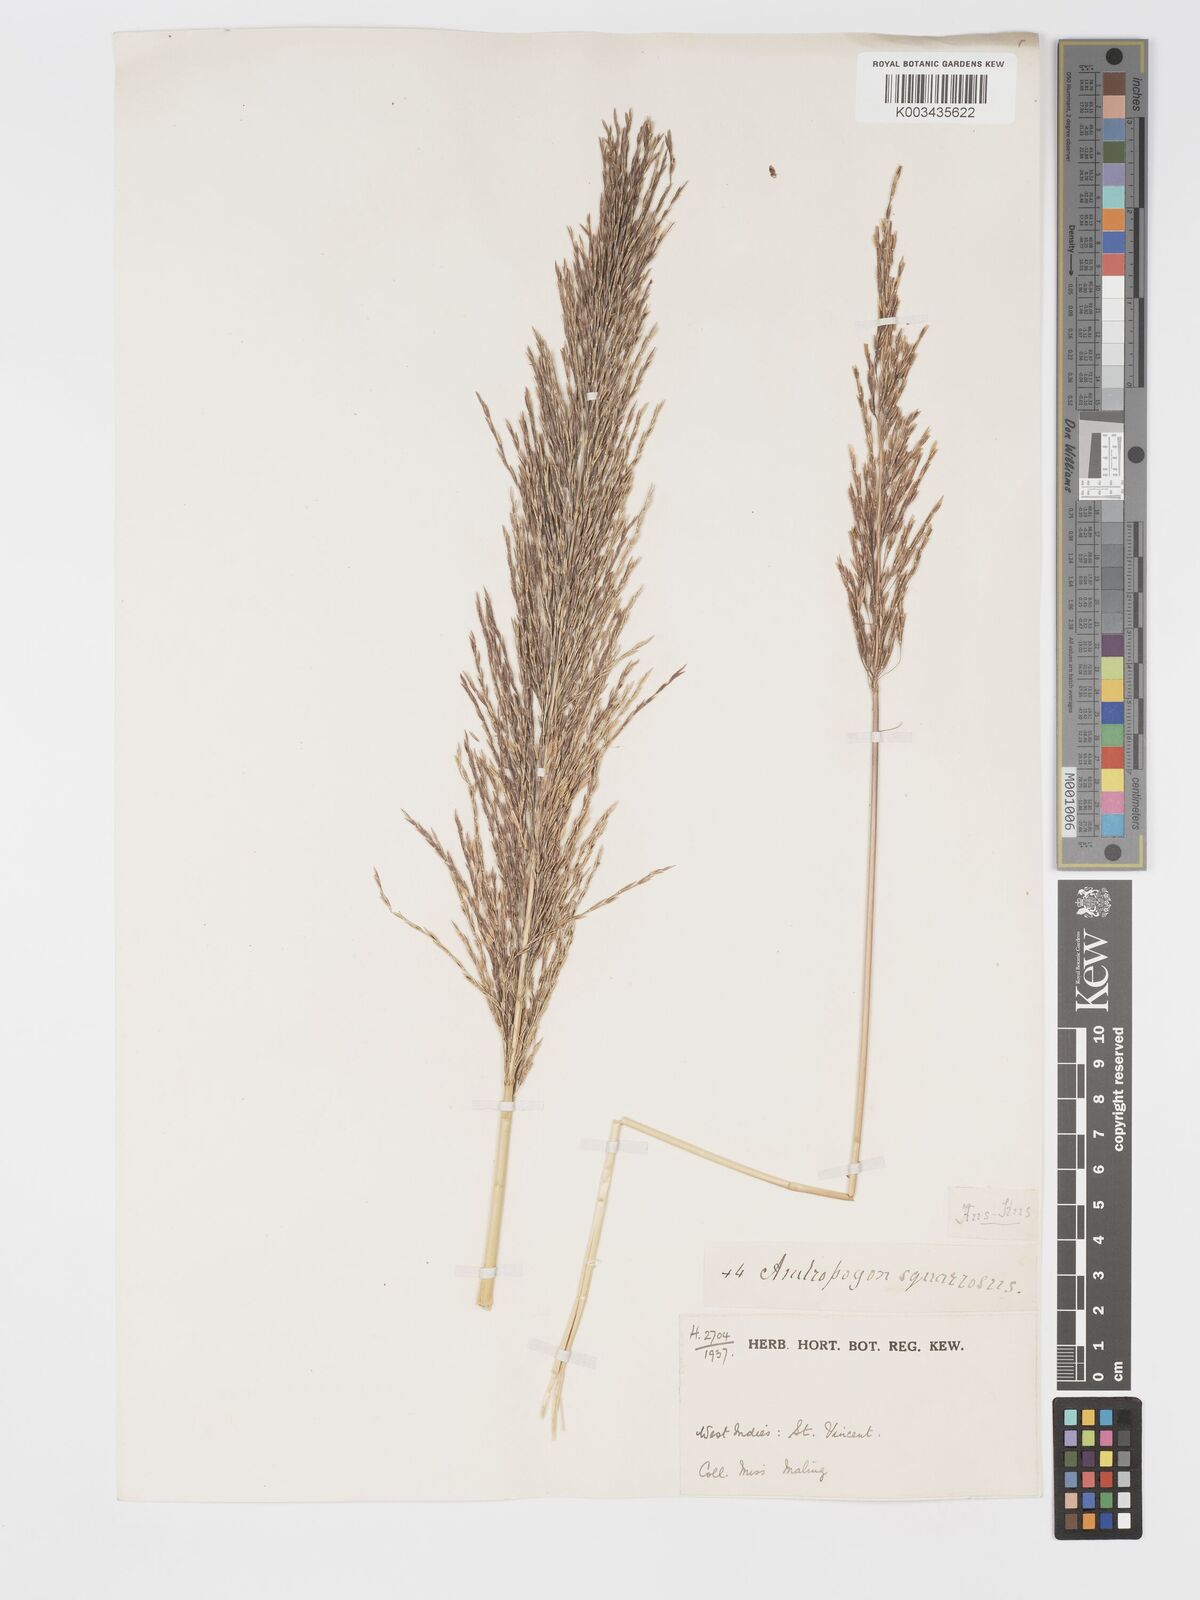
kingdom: Plantae
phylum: Tracheophyta
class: Liliopsida
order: Poales
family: Poaceae
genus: Chrysopogon
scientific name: Chrysopogon zizanioides
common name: False beardgrass
